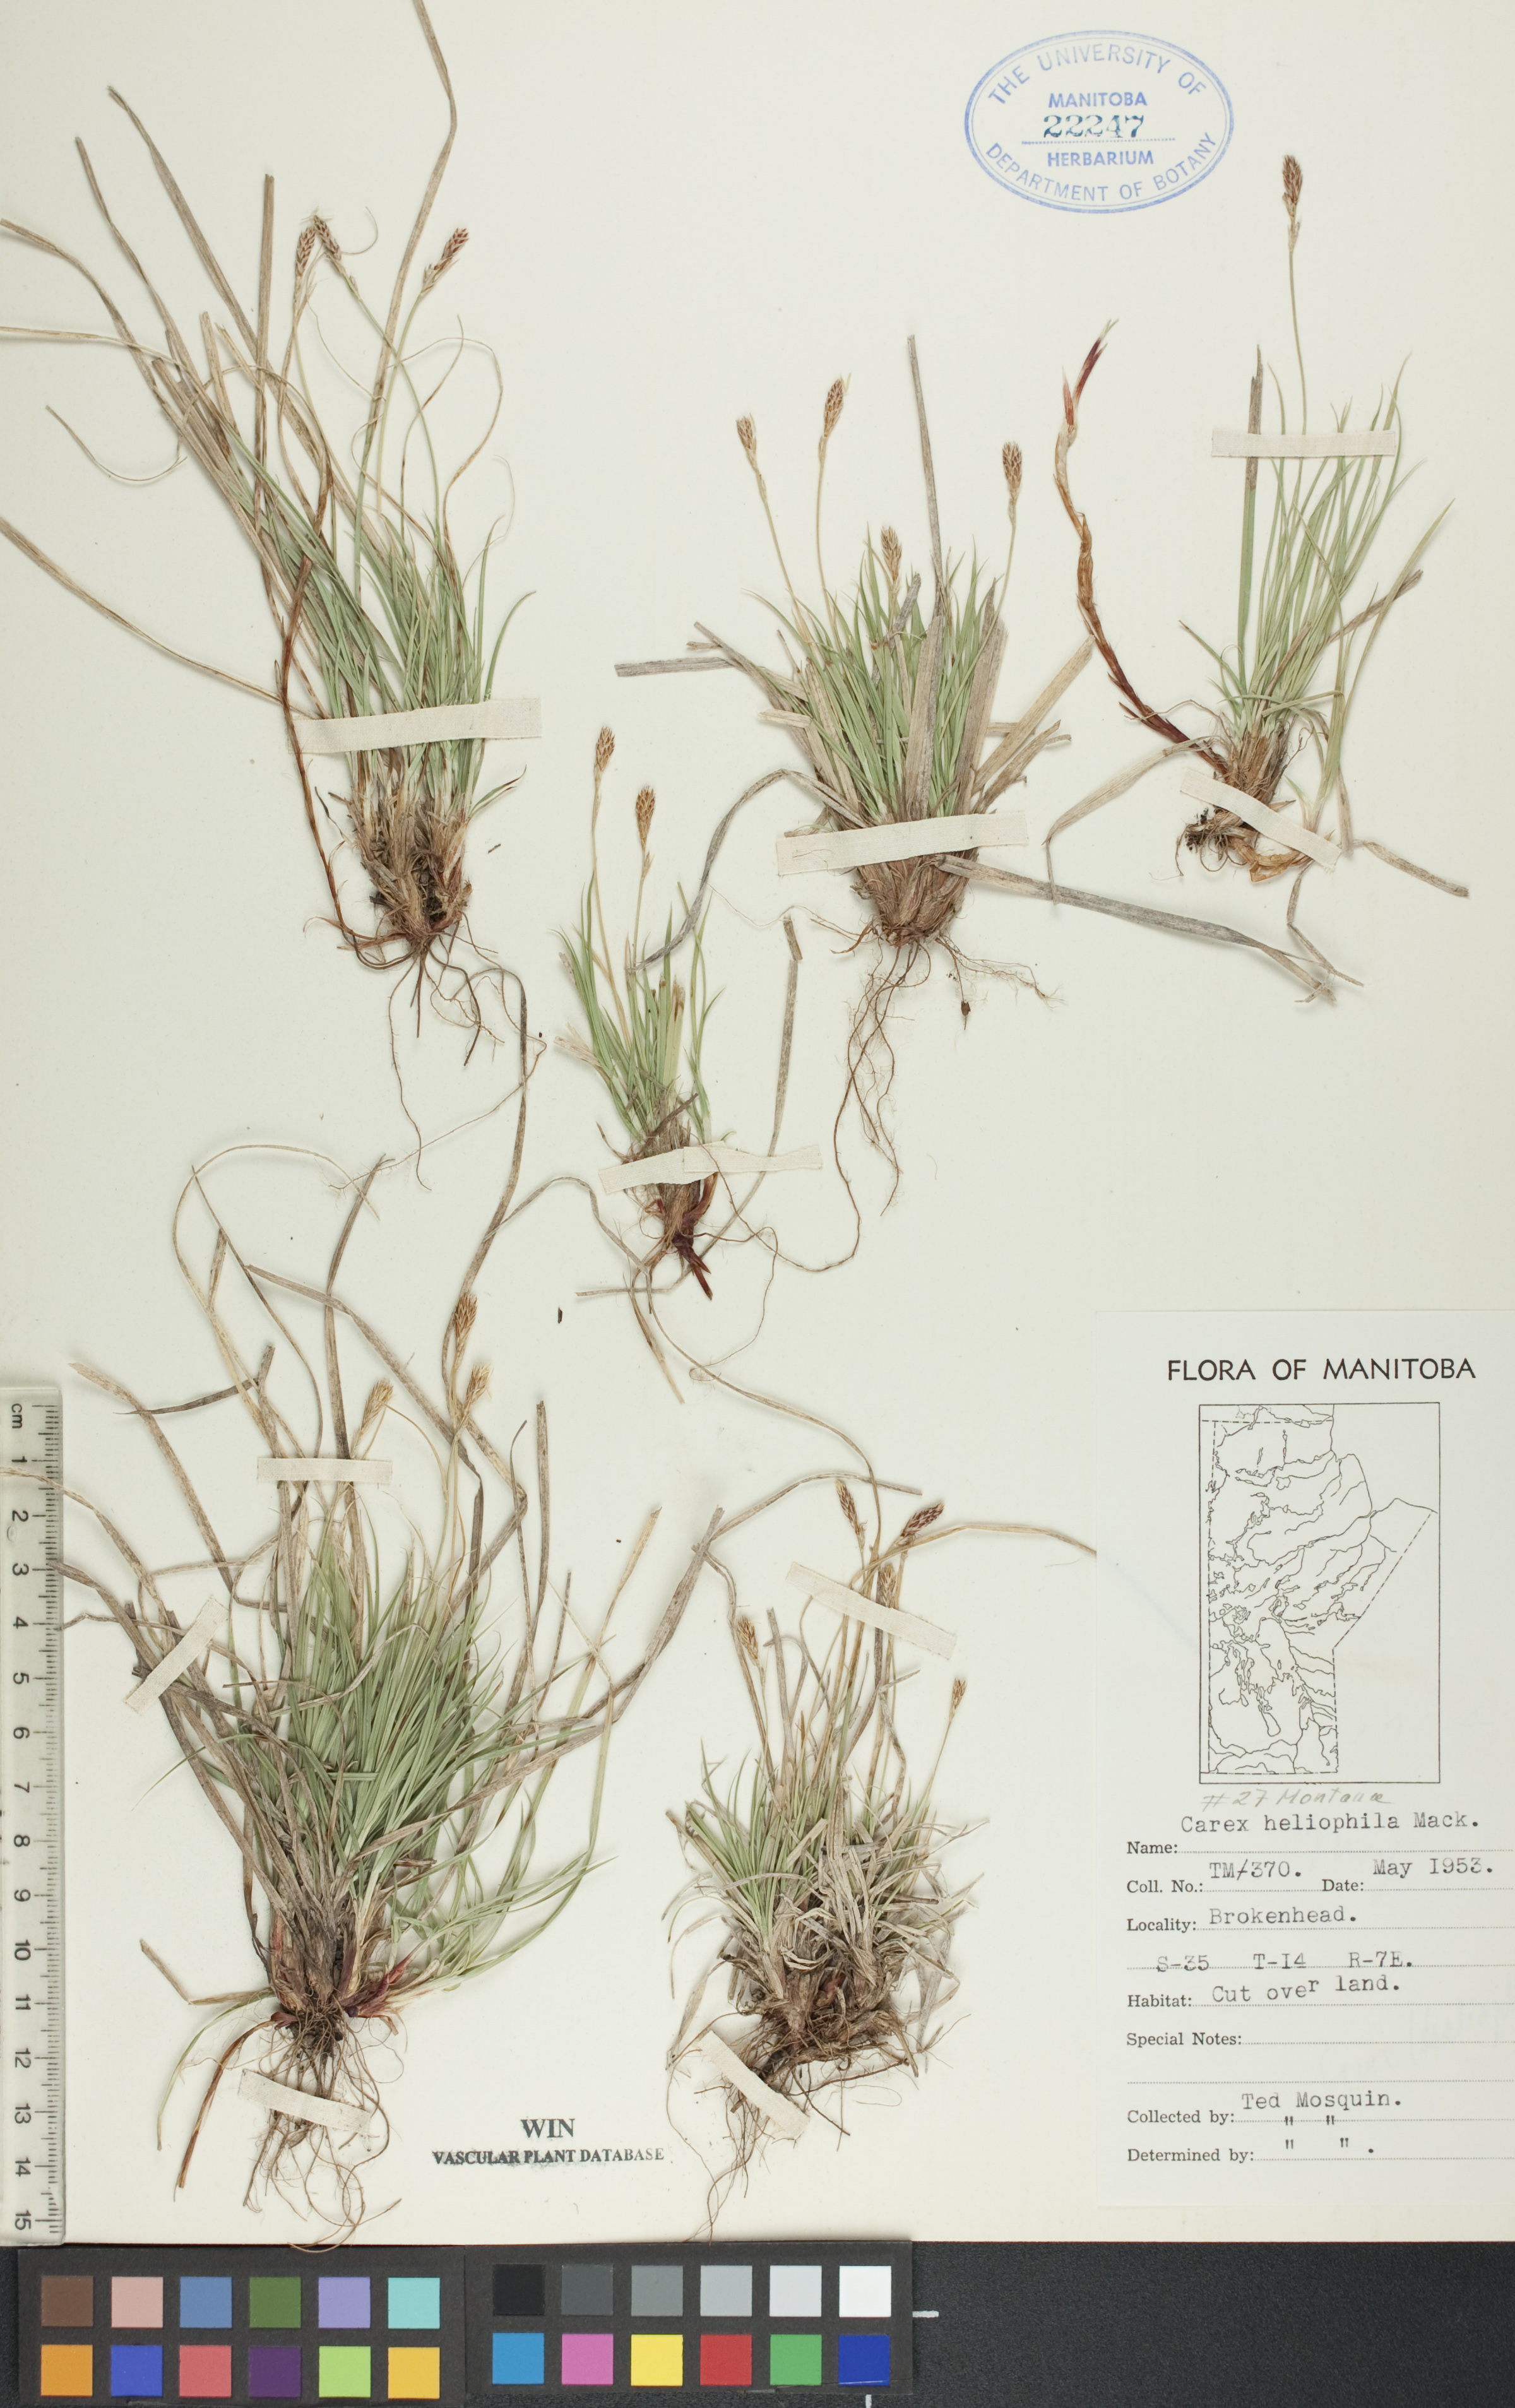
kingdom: Plantae
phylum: Tracheophyta
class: Liliopsida
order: Poales
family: Cyperaceae
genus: Carex
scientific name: Carex inops
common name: Long-stolon sedge
